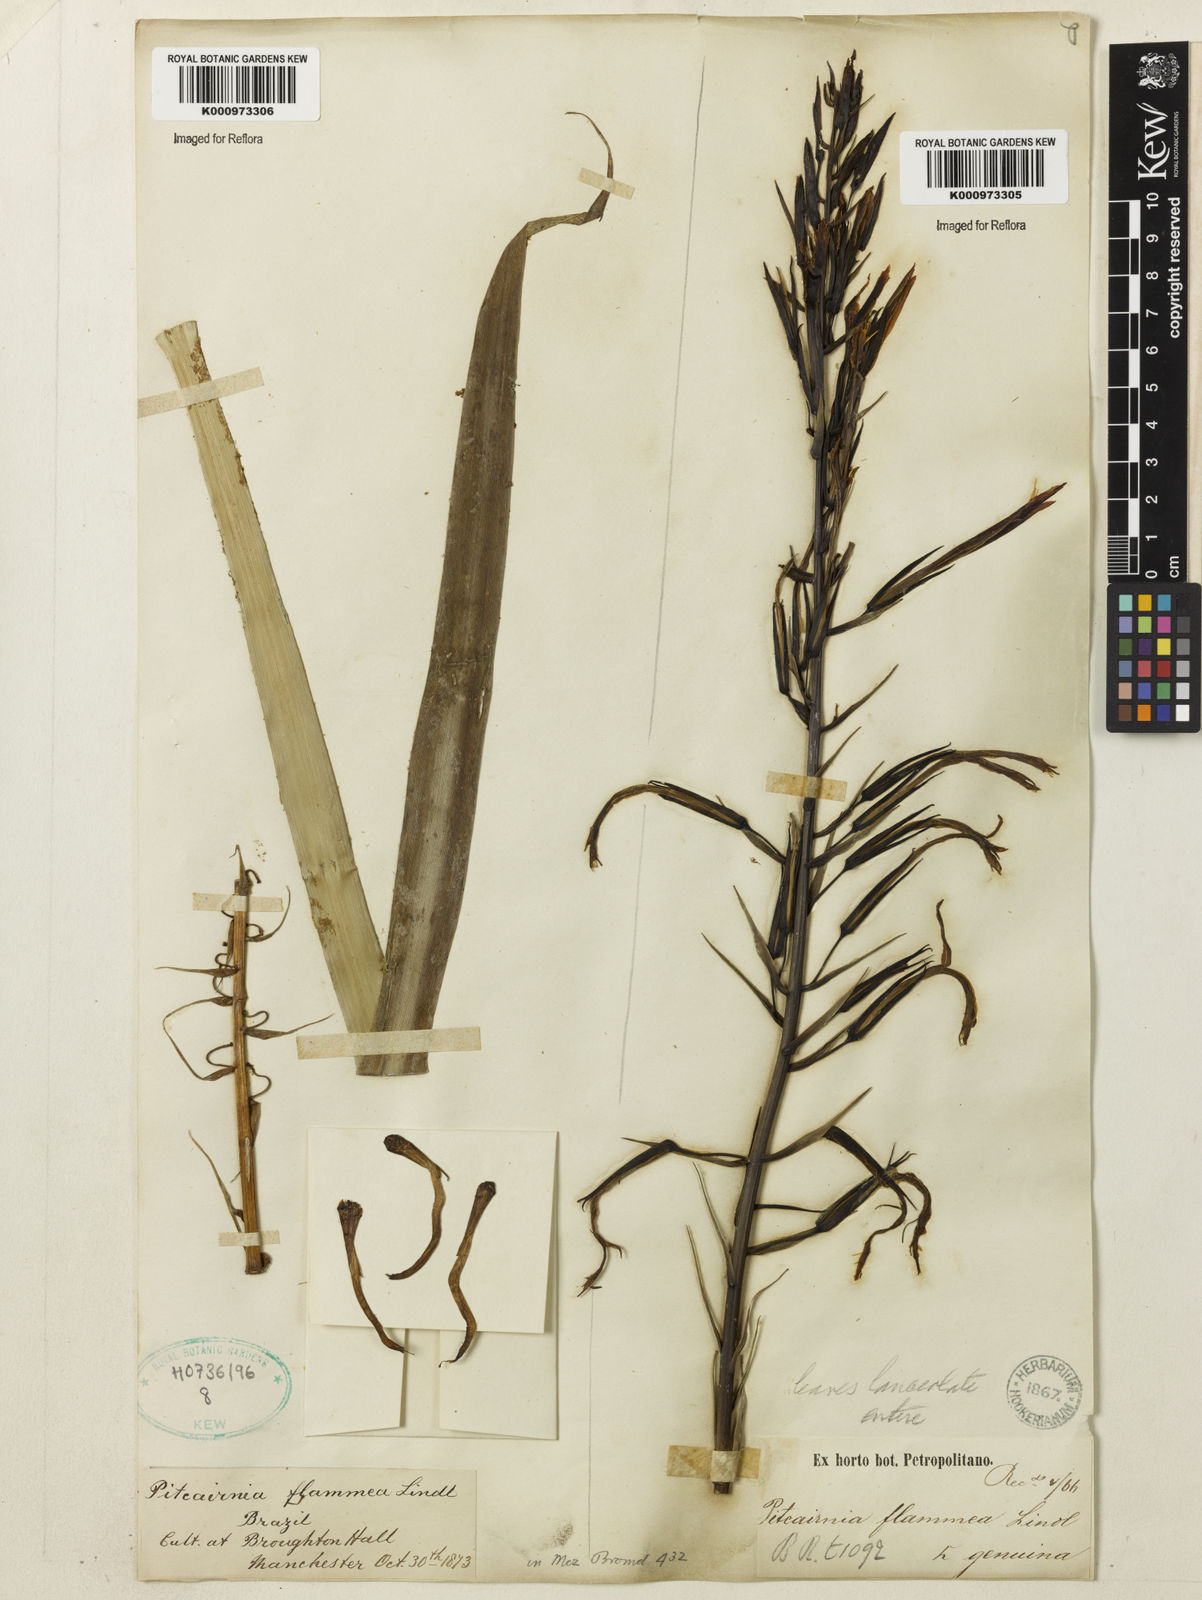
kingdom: Plantae
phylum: Tracheophyta
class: Liliopsida
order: Poales
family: Bromeliaceae
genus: Pitcairnia
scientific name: Pitcairnia flammea
